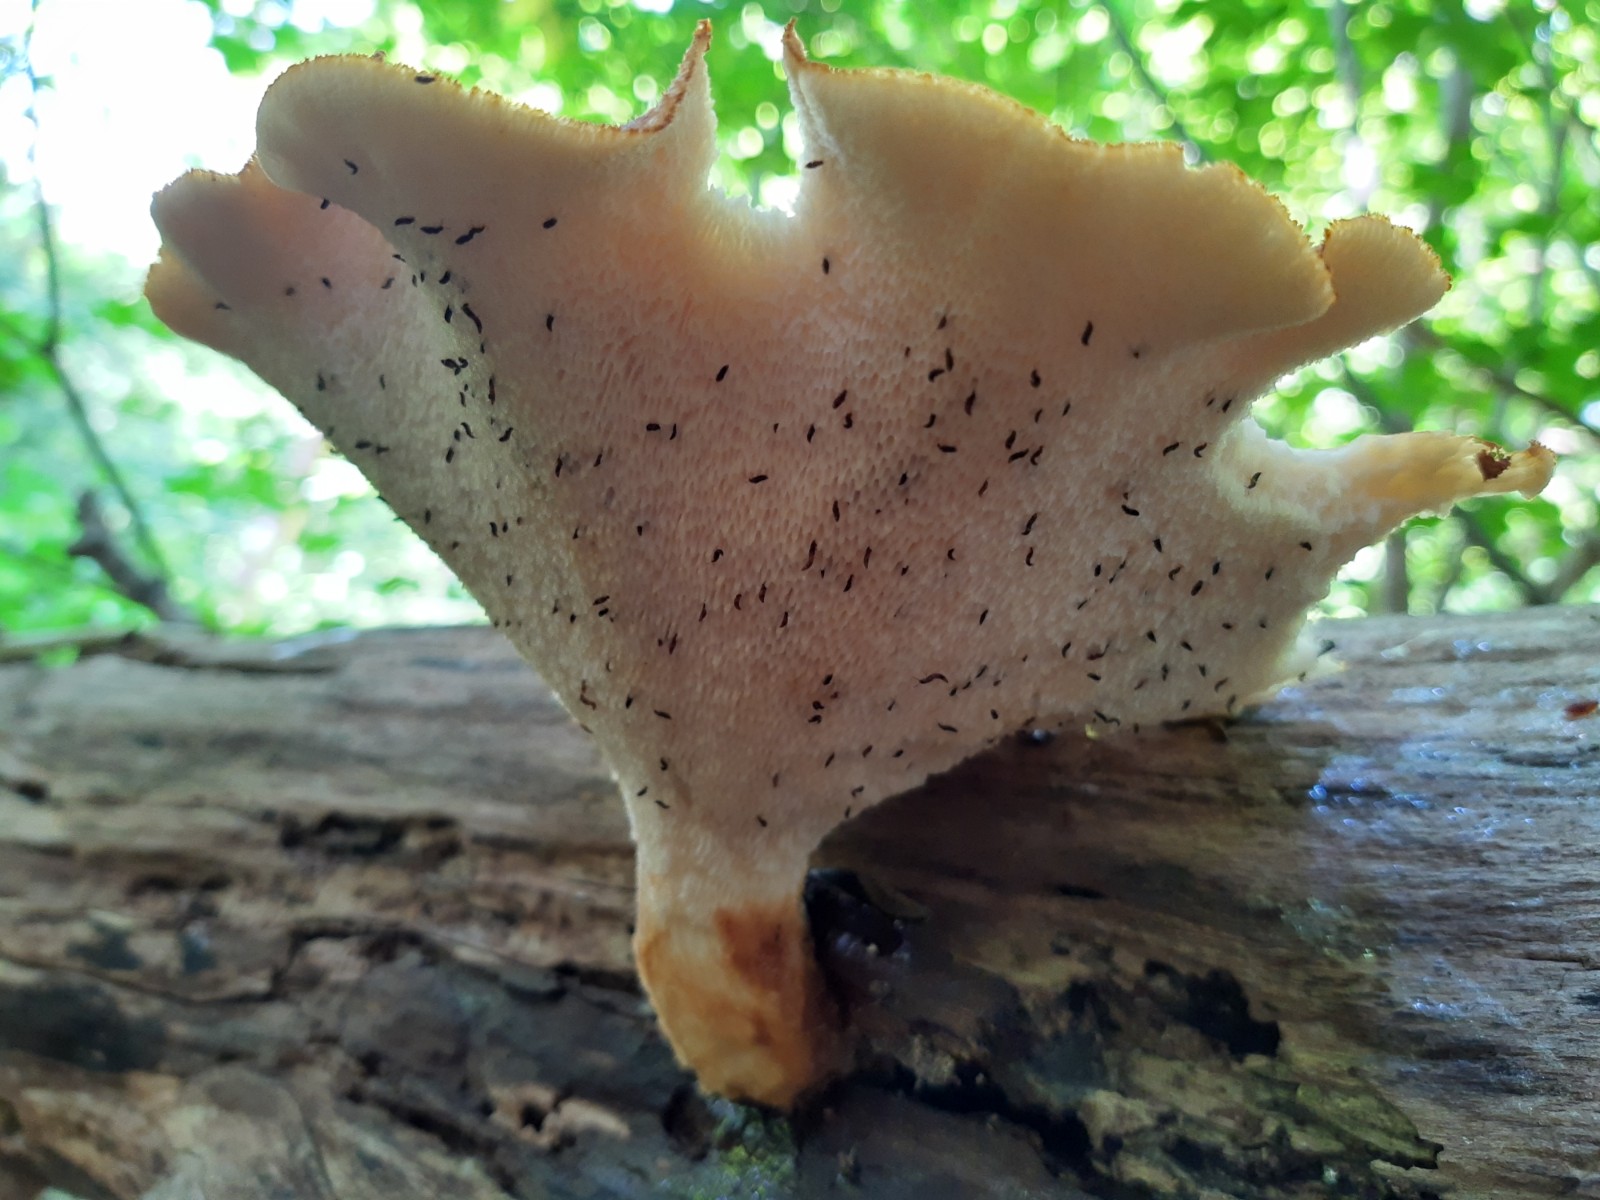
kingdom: Fungi
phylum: Basidiomycota
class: Agaricomycetes
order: Polyporales
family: Polyporaceae
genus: Polyporus
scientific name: Polyporus tuberaster
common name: knoldet stilkporesvamp
